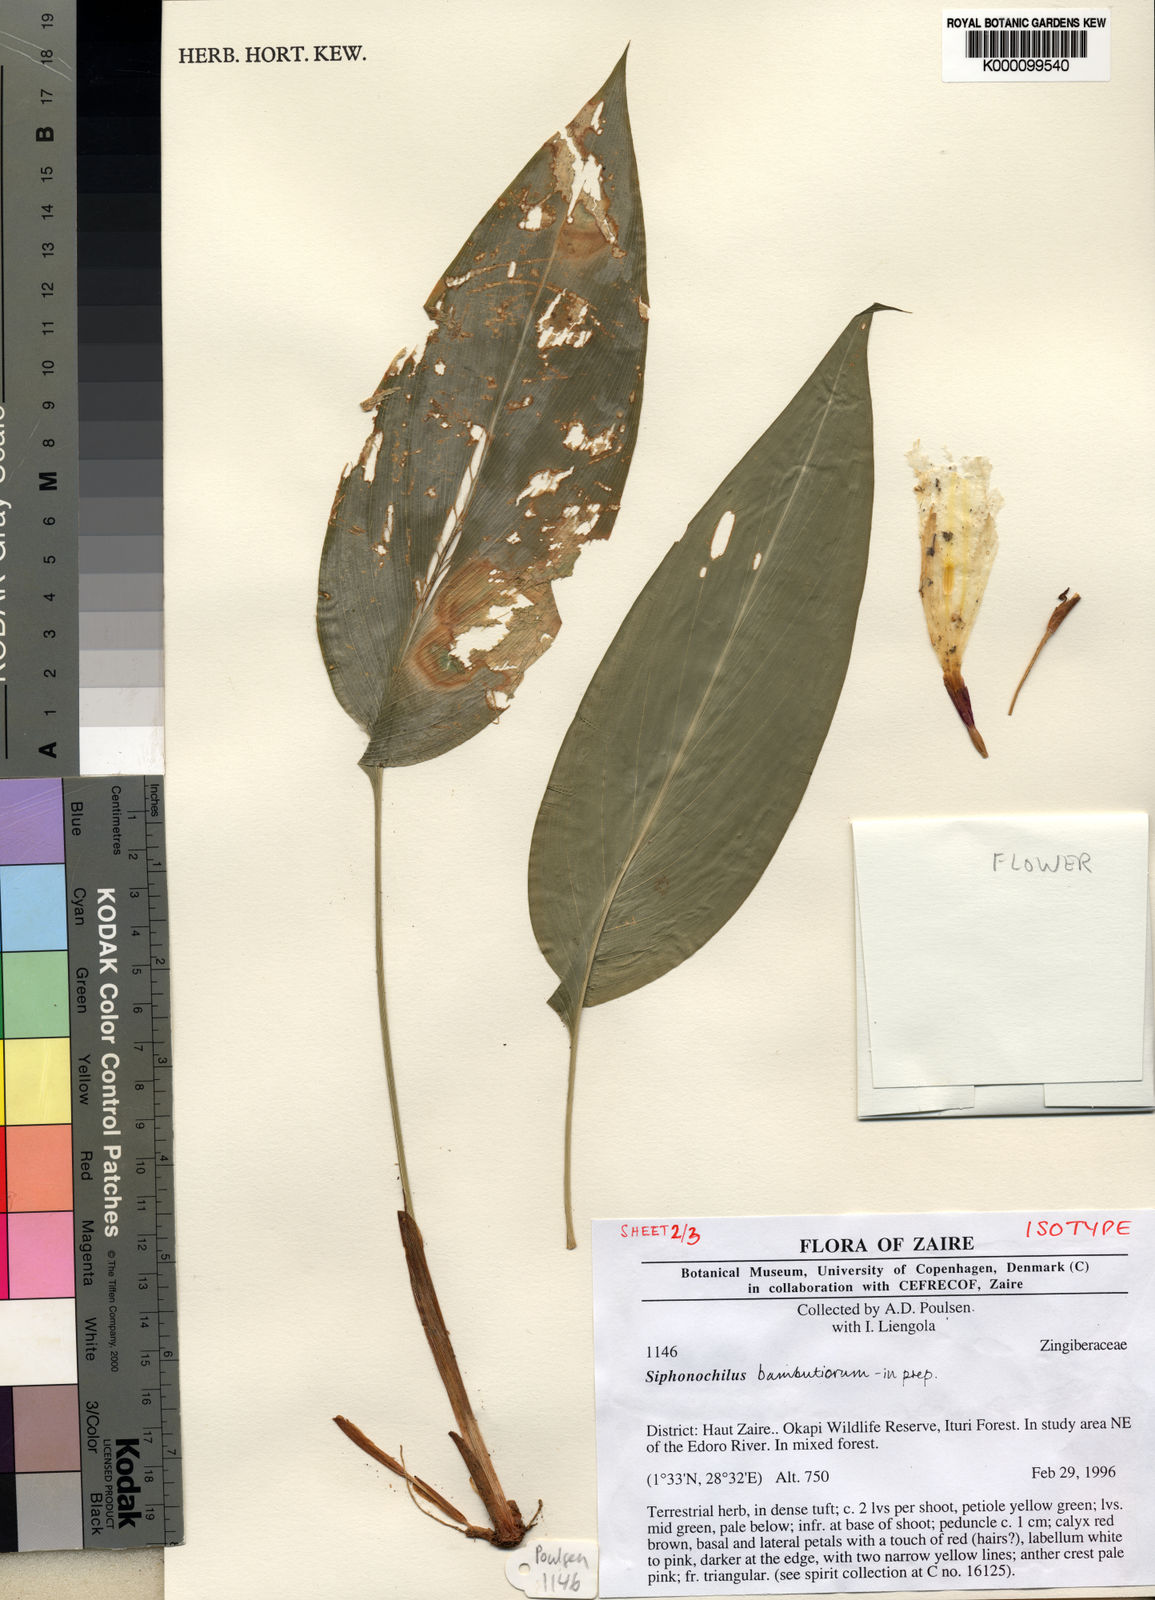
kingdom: Plantae
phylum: Tracheophyta
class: Liliopsida
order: Zingiberales
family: Zingiberaceae
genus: Siphonochilus
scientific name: Siphonochilus bambutiorum
